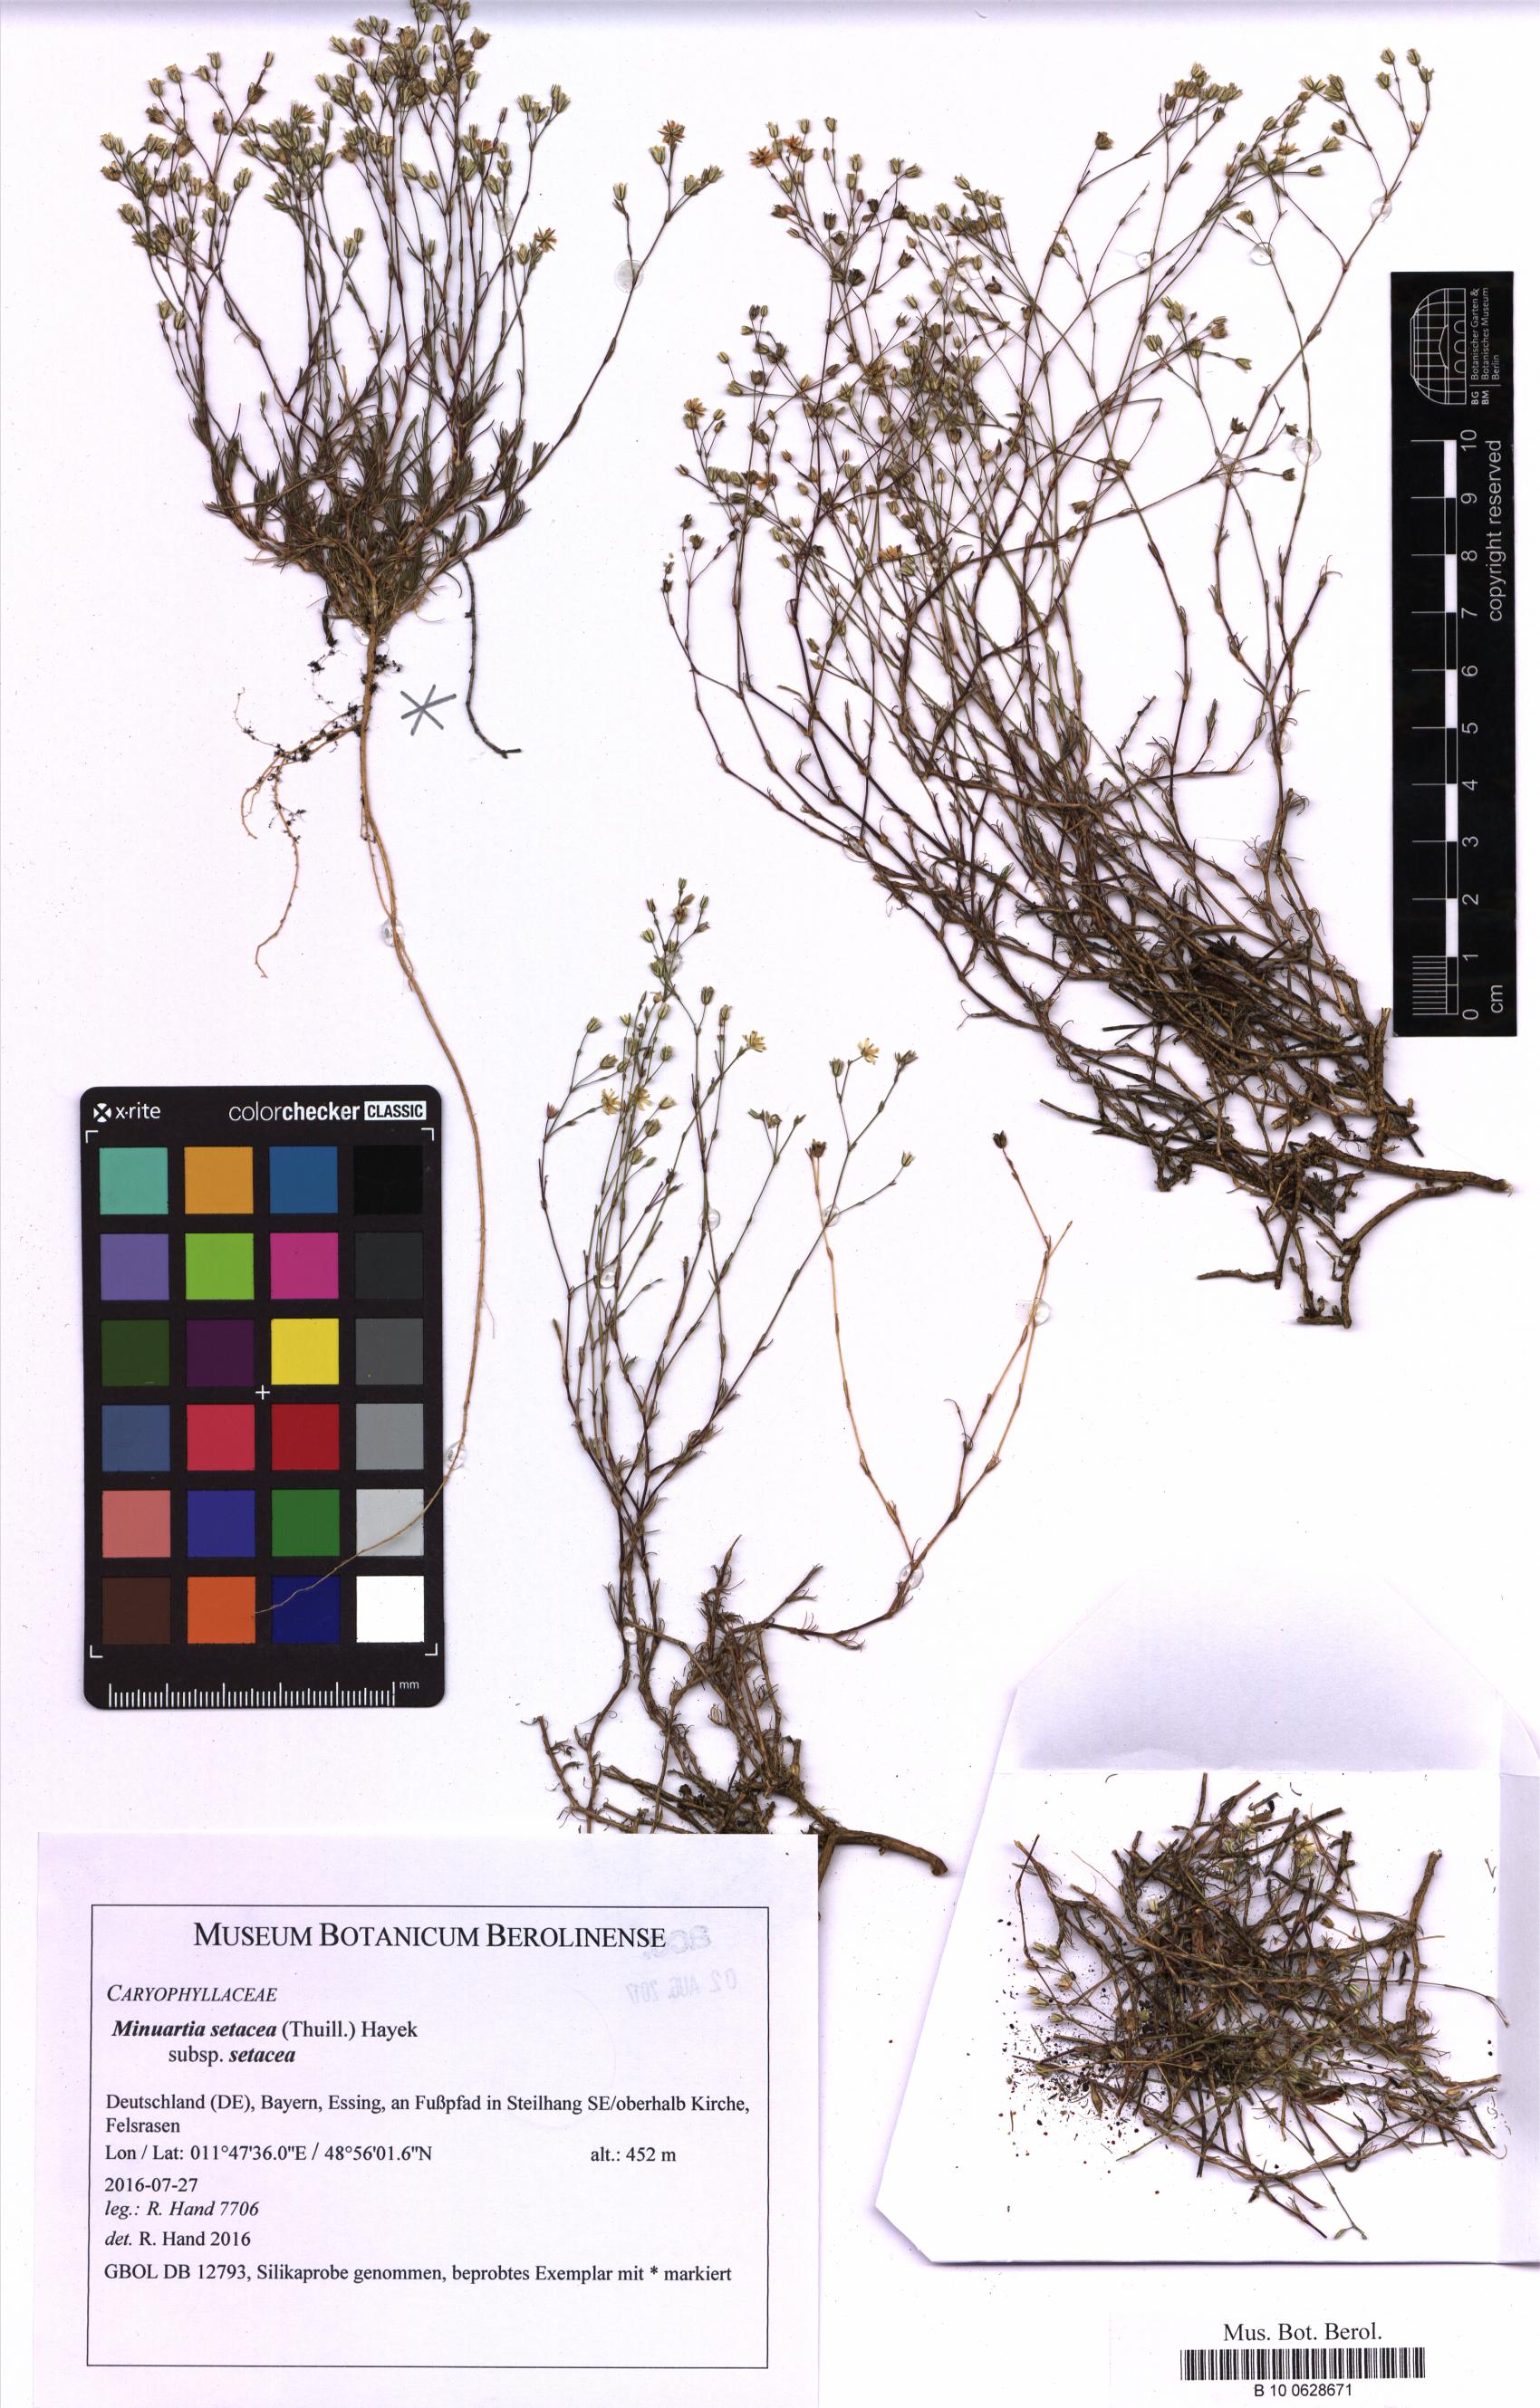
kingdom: Plantae
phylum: Tracheophyta
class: Magnoliopsida
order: Caryophyllales
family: Caryophyllaceae
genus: Minuartia
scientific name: Minuartia setacea
